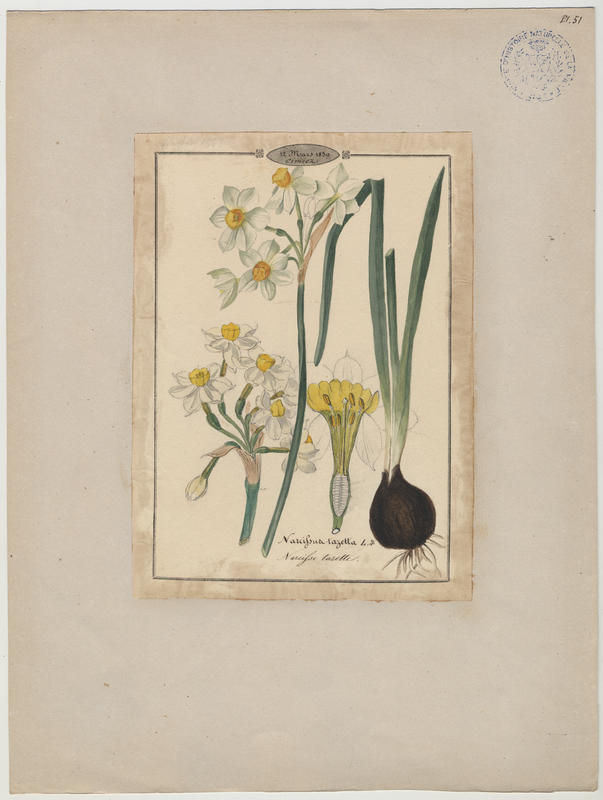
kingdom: Plantae
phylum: Tracheophyta
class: Liliopsida
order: Asparagales
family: Amaryllidaceae
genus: Narcissus
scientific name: Narcissus tazetta
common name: Bunch-flowered daffodil
